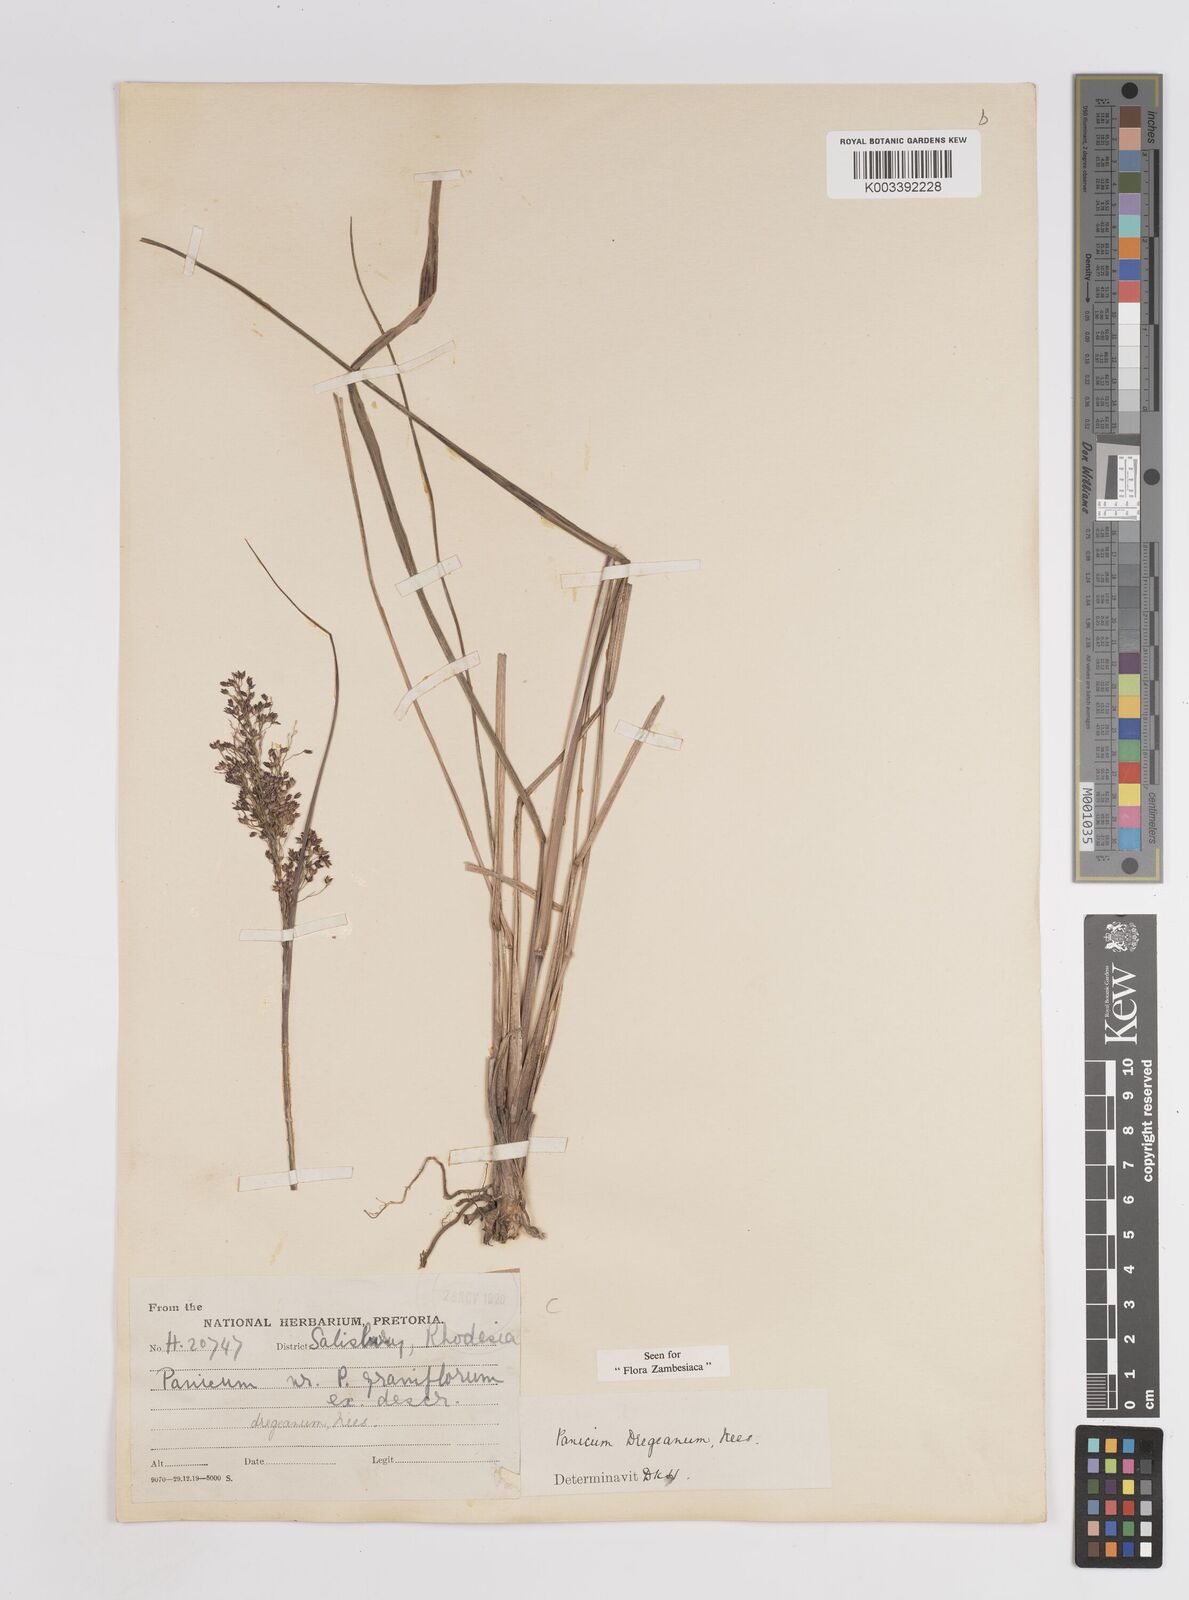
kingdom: Plantae
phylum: Tracheophyta
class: Liliopsida
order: Poales
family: Poaceae
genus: Panicum
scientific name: Panicum dregeanum
